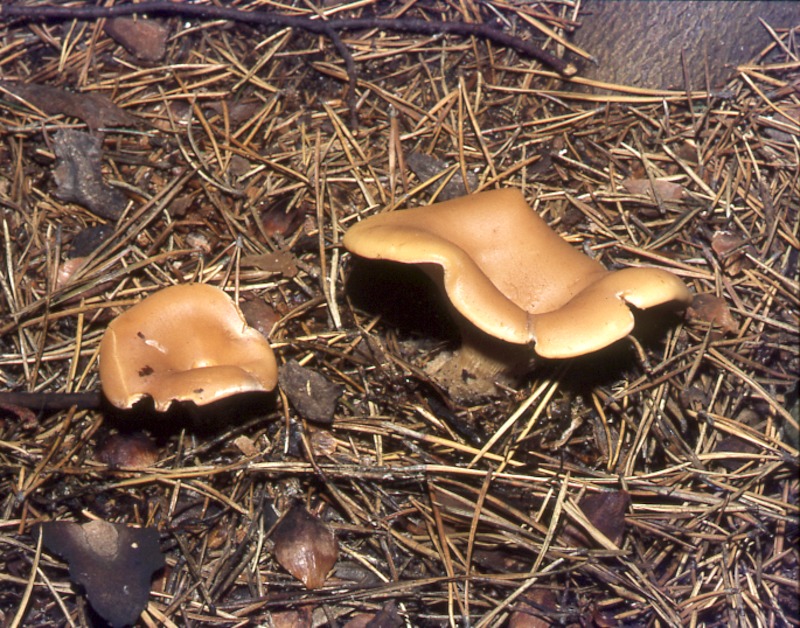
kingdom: Fungi
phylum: Basidiomycota
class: Agaricomycetes
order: Agaricales
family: Tricholomataceae
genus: Paralepista
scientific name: Paralepista flaccida
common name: Tawny funnel cap
